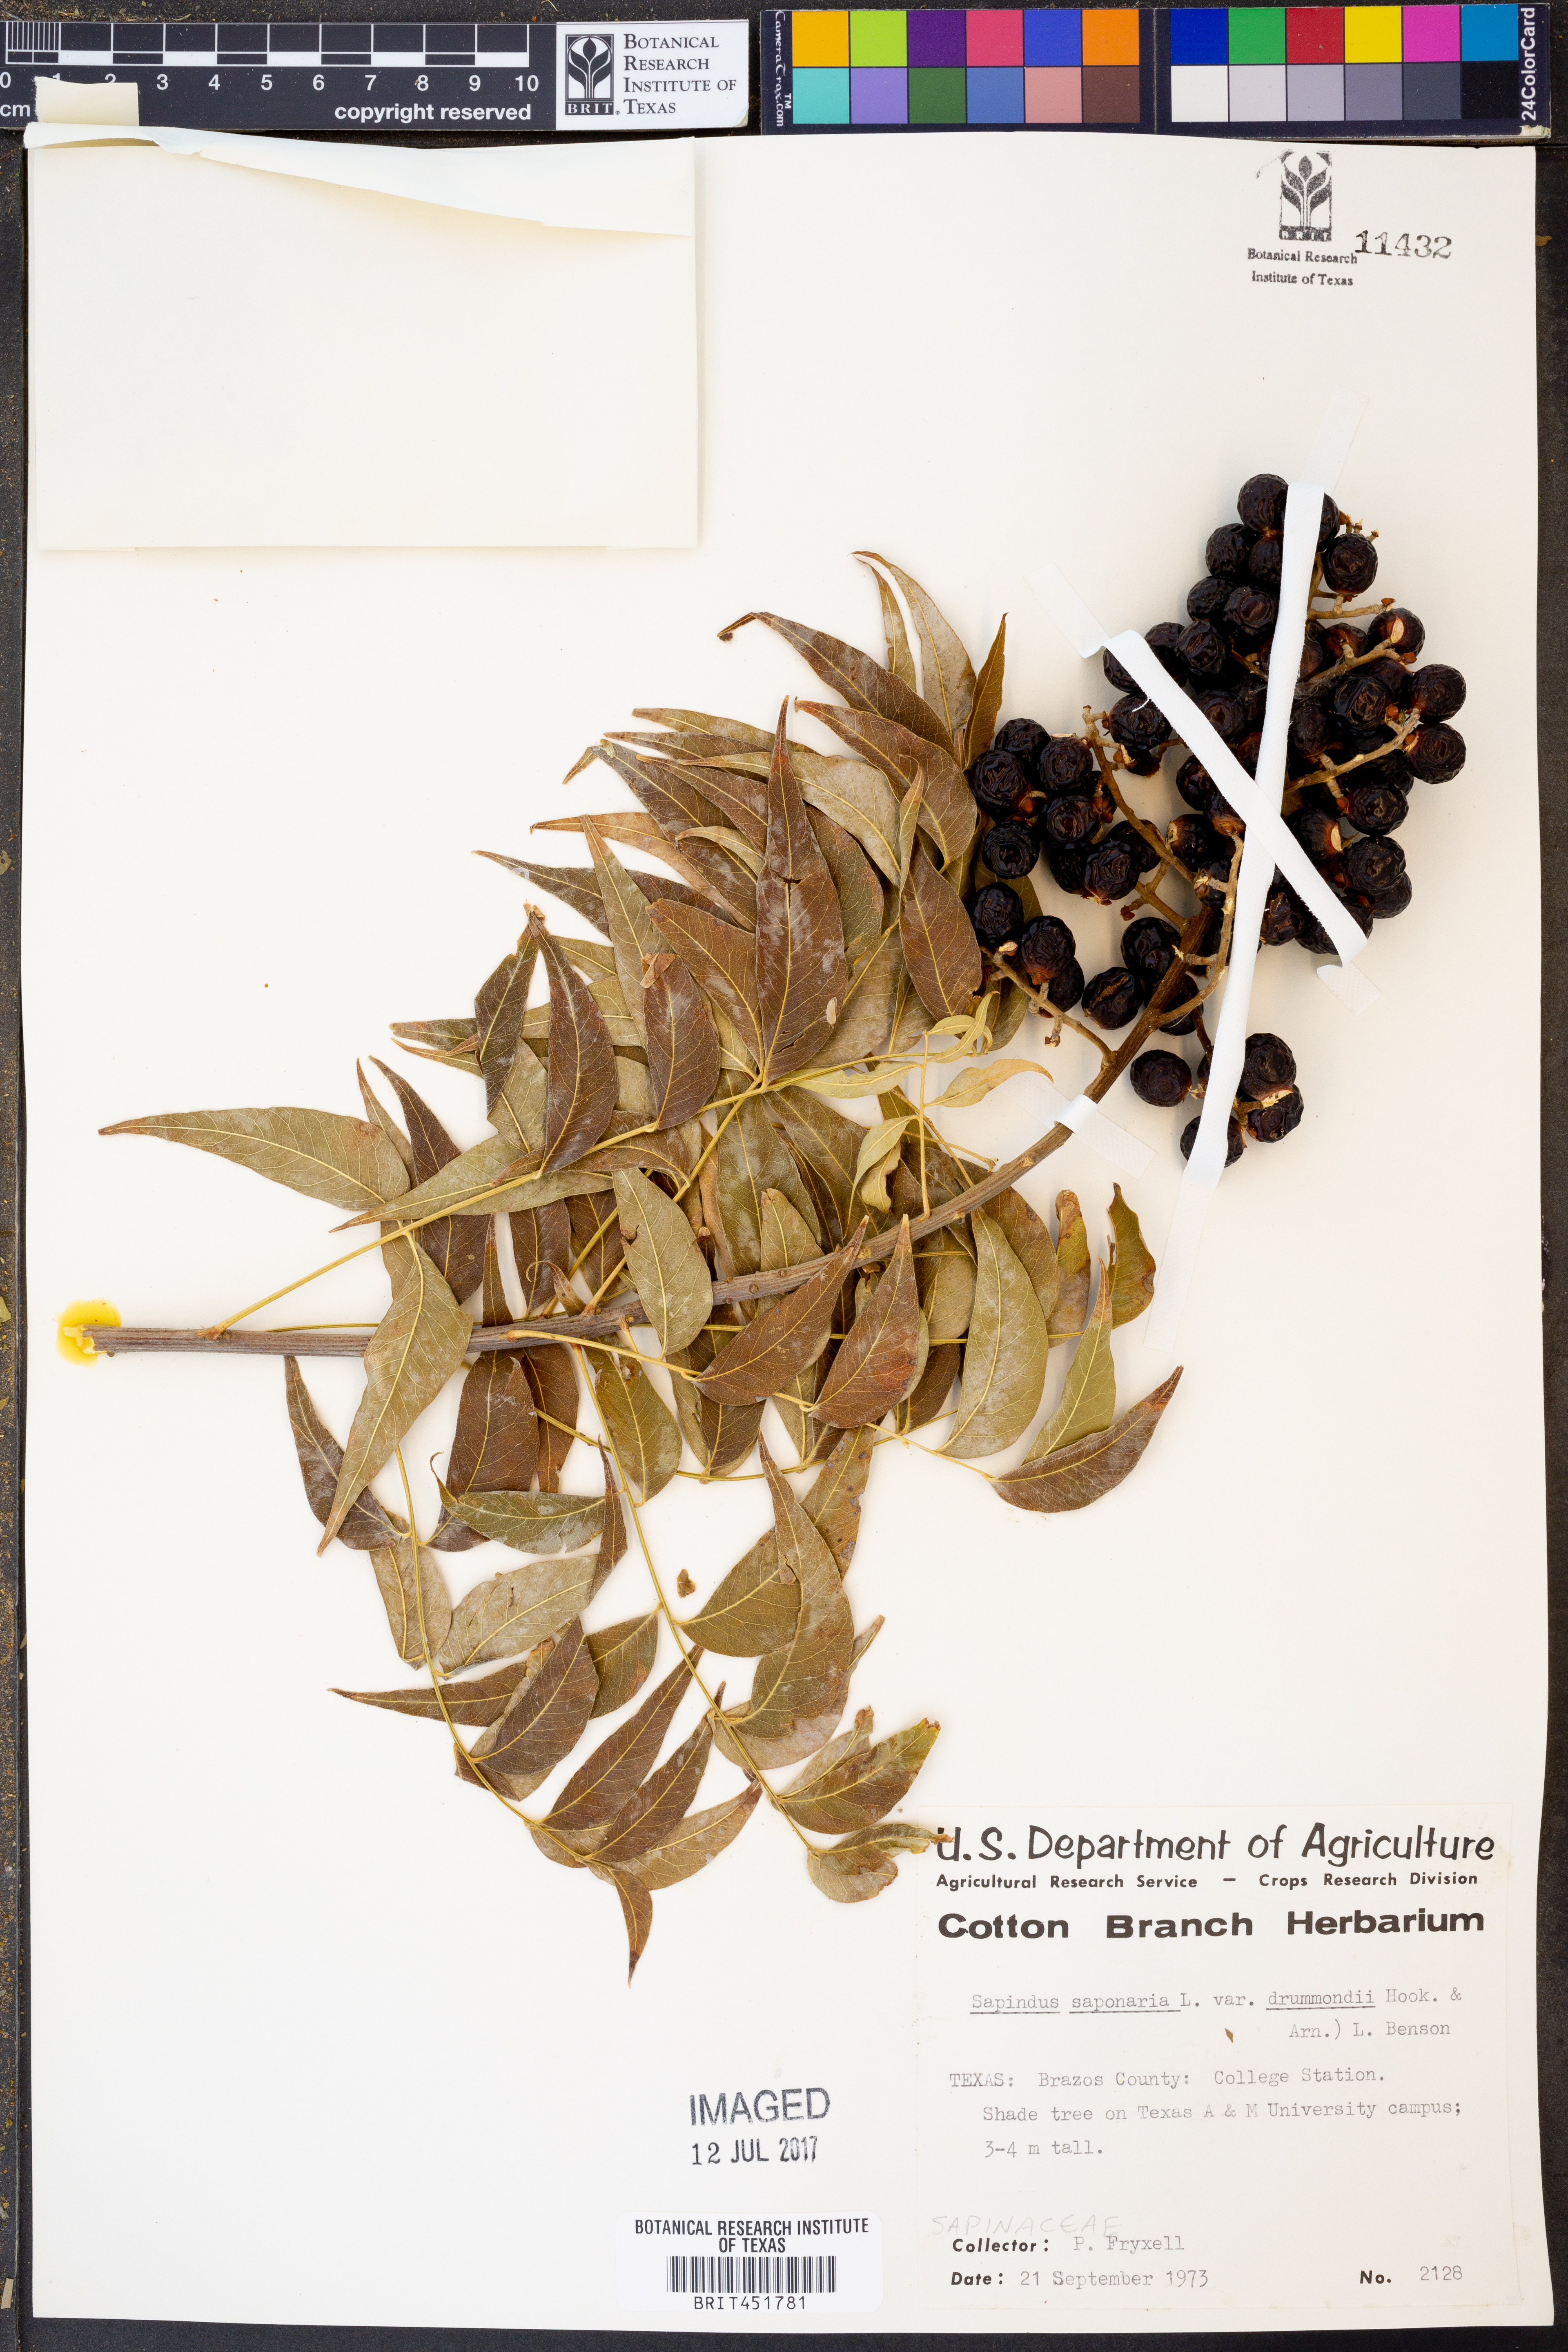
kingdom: Plantae
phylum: Tracheophyta
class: Magnoliopsida
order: Sapindales
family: Sapindaceae
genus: Sapindus
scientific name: Sapindus saponaria
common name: Wingleaf soapberry
